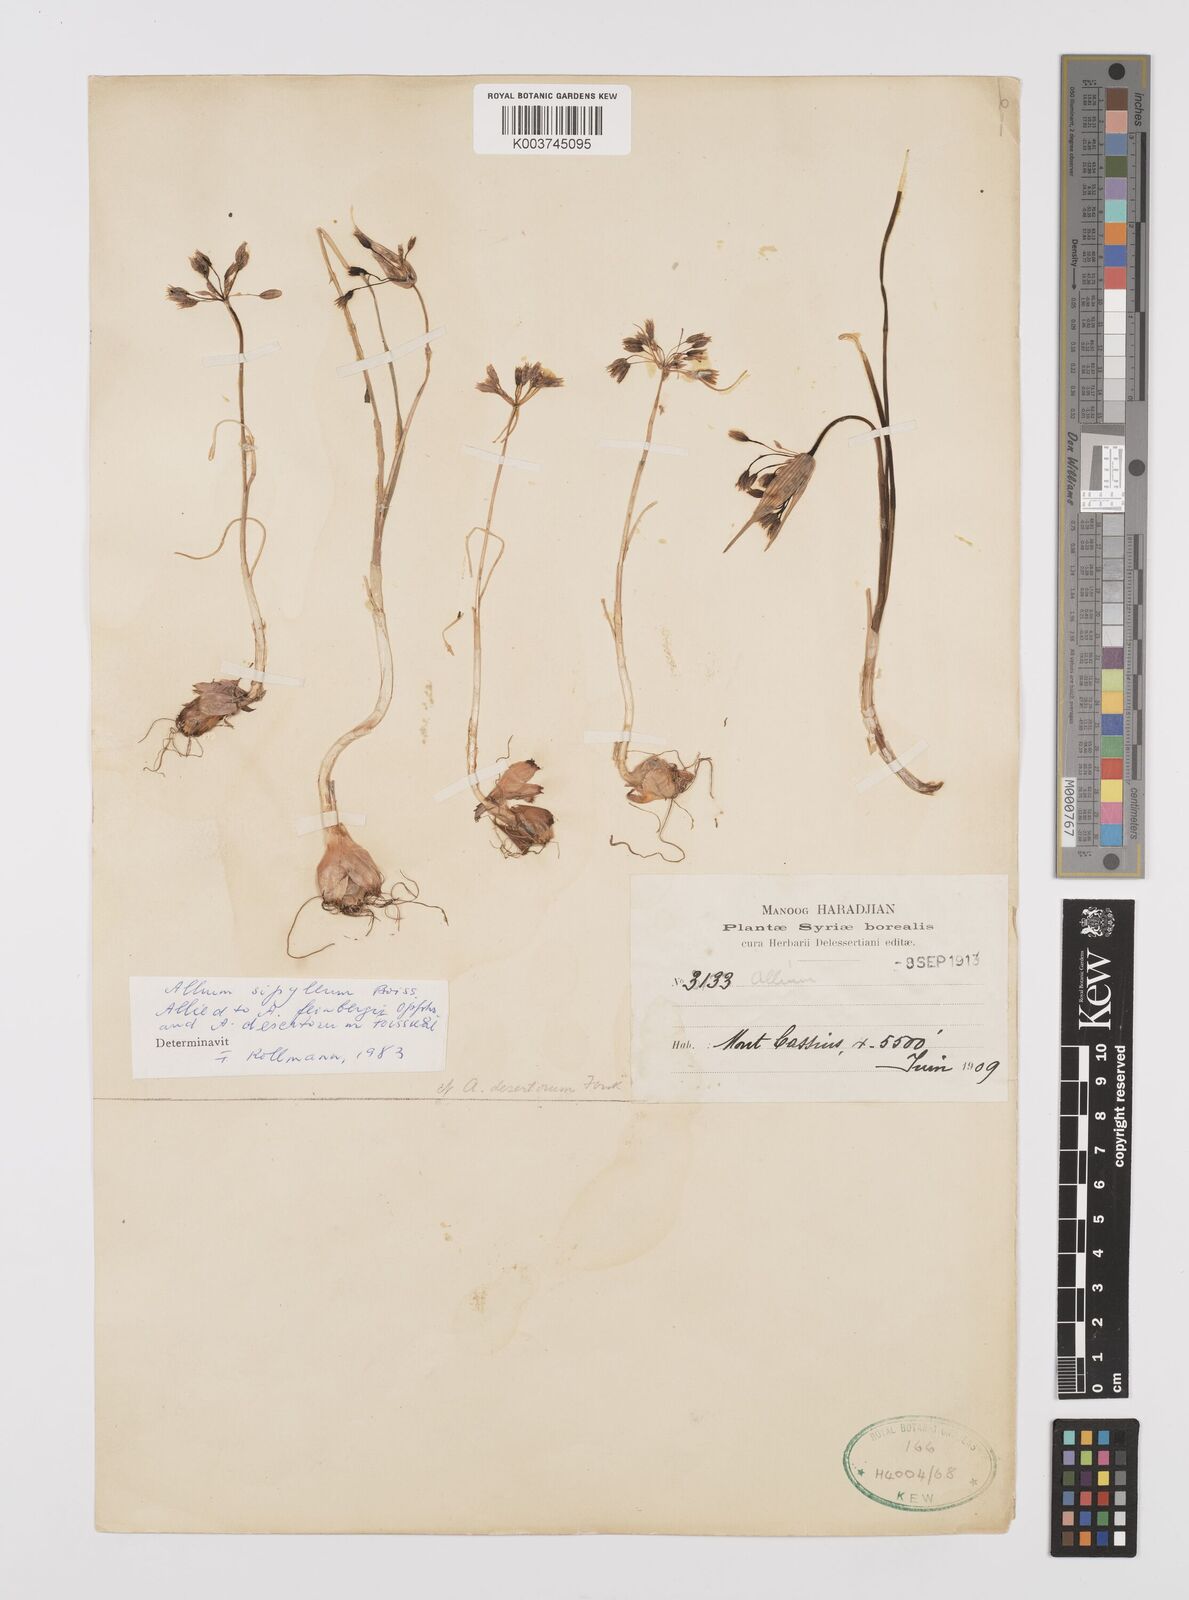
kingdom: Plantae
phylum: Tracheophyta
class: Liliopsida
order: Asparagales
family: Amaryllidaceae
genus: Allium
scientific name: Allium sipyleum
